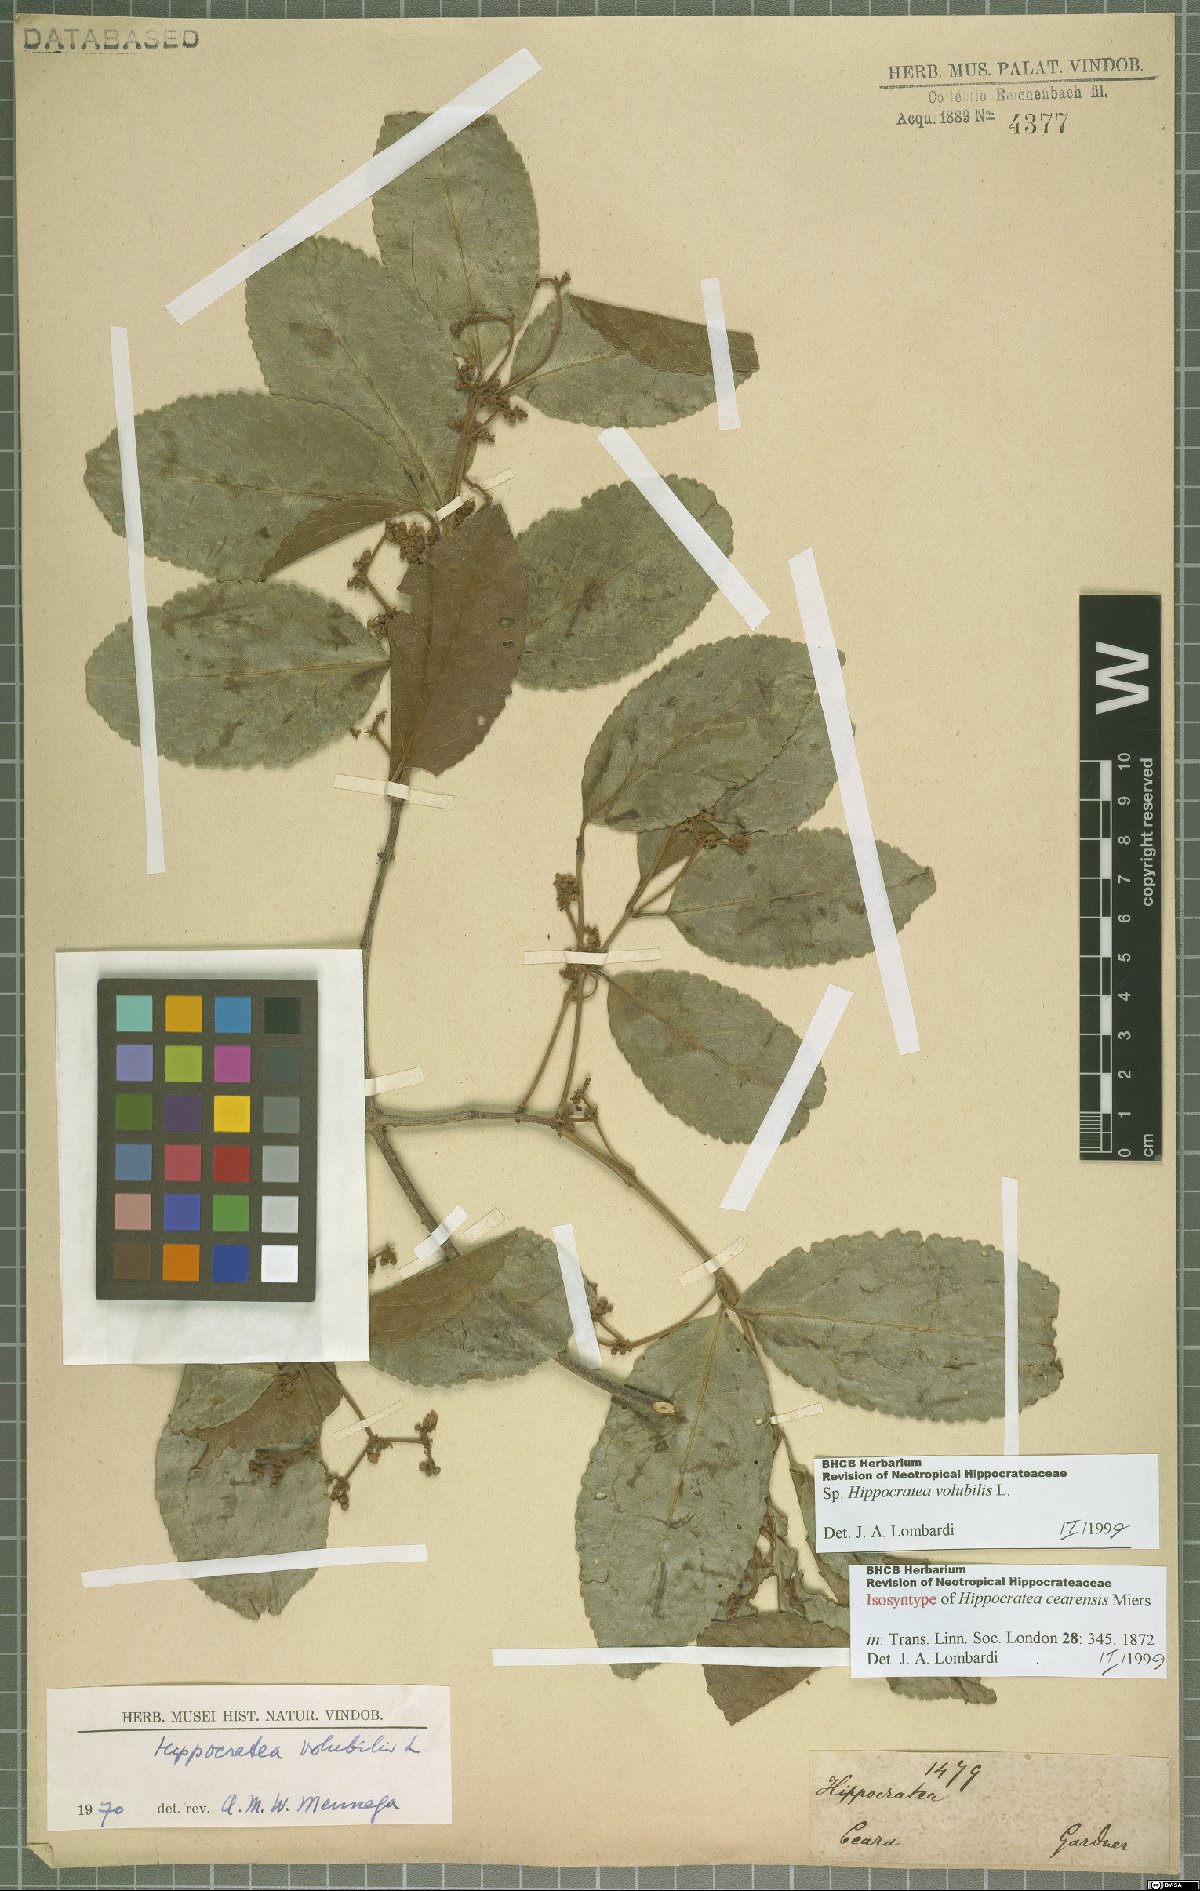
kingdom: Plantae
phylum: Tracheophyta
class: Magnoliopsida
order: Celastrales
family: Celastraceae
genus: Hippocratea
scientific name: Hippocratea volubilis
